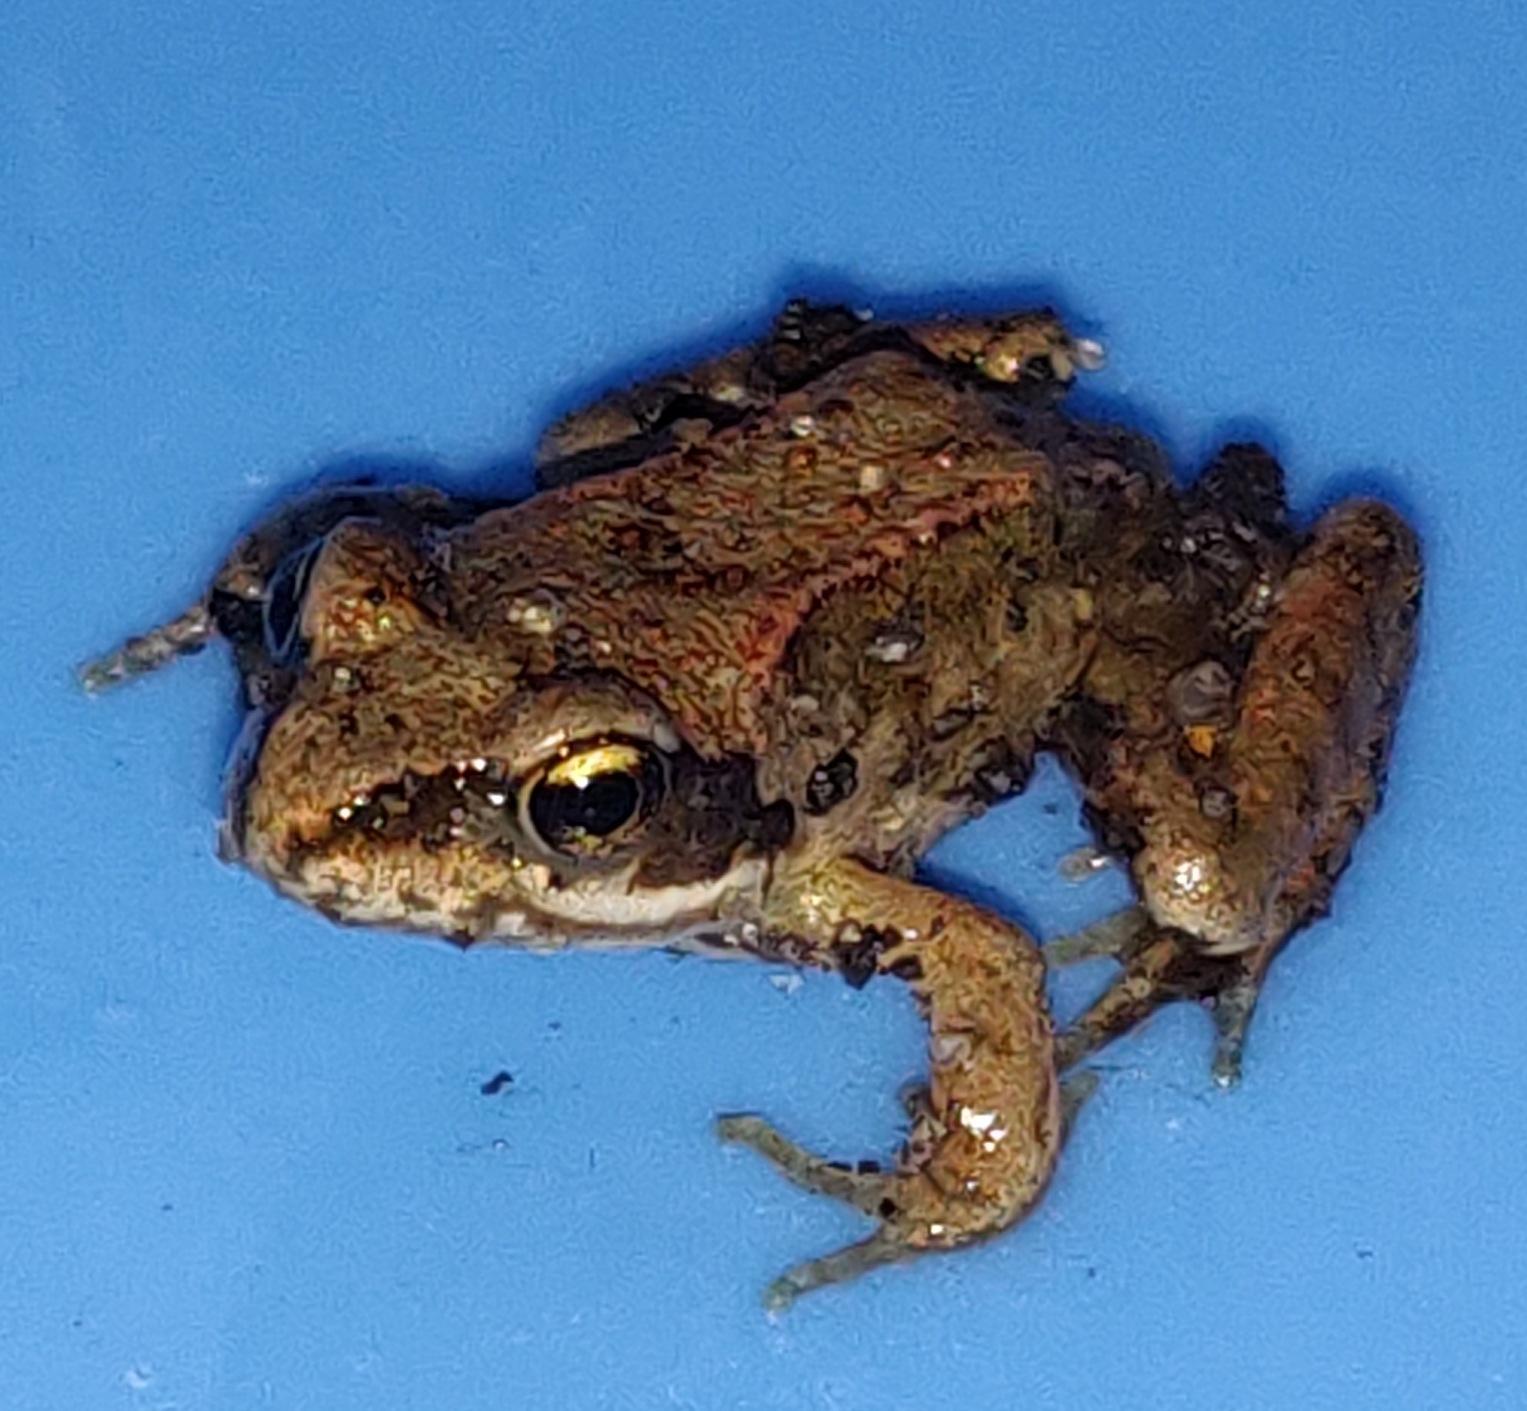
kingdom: Animalia
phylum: Chordata
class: Amphibia
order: Anura
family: Ranidae
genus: Rana
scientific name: Rana temporaria
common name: Butsnudet frø
